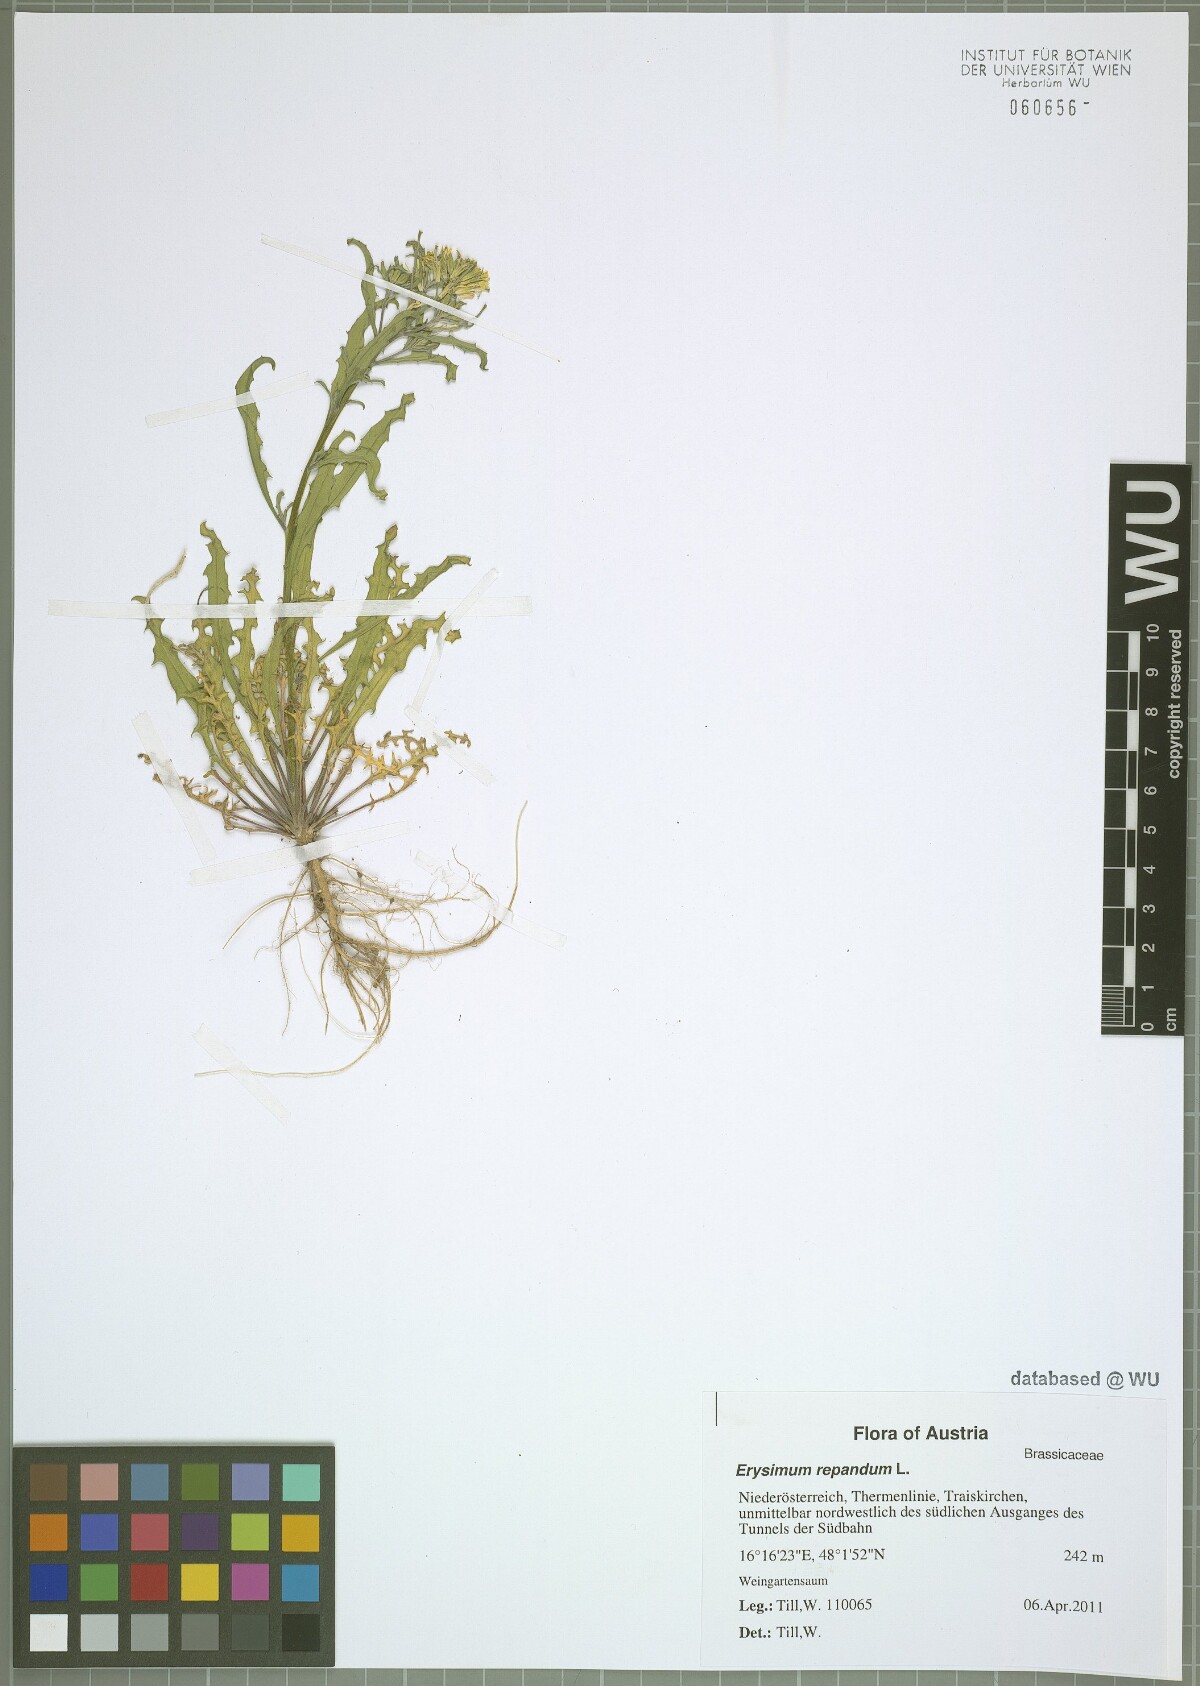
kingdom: Plantae
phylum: Tracheophyta
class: Magnoliopsida
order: Brassicales
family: Brassicaceae
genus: Erysimum
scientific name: Erysimum repandum
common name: Spreading wallflower
